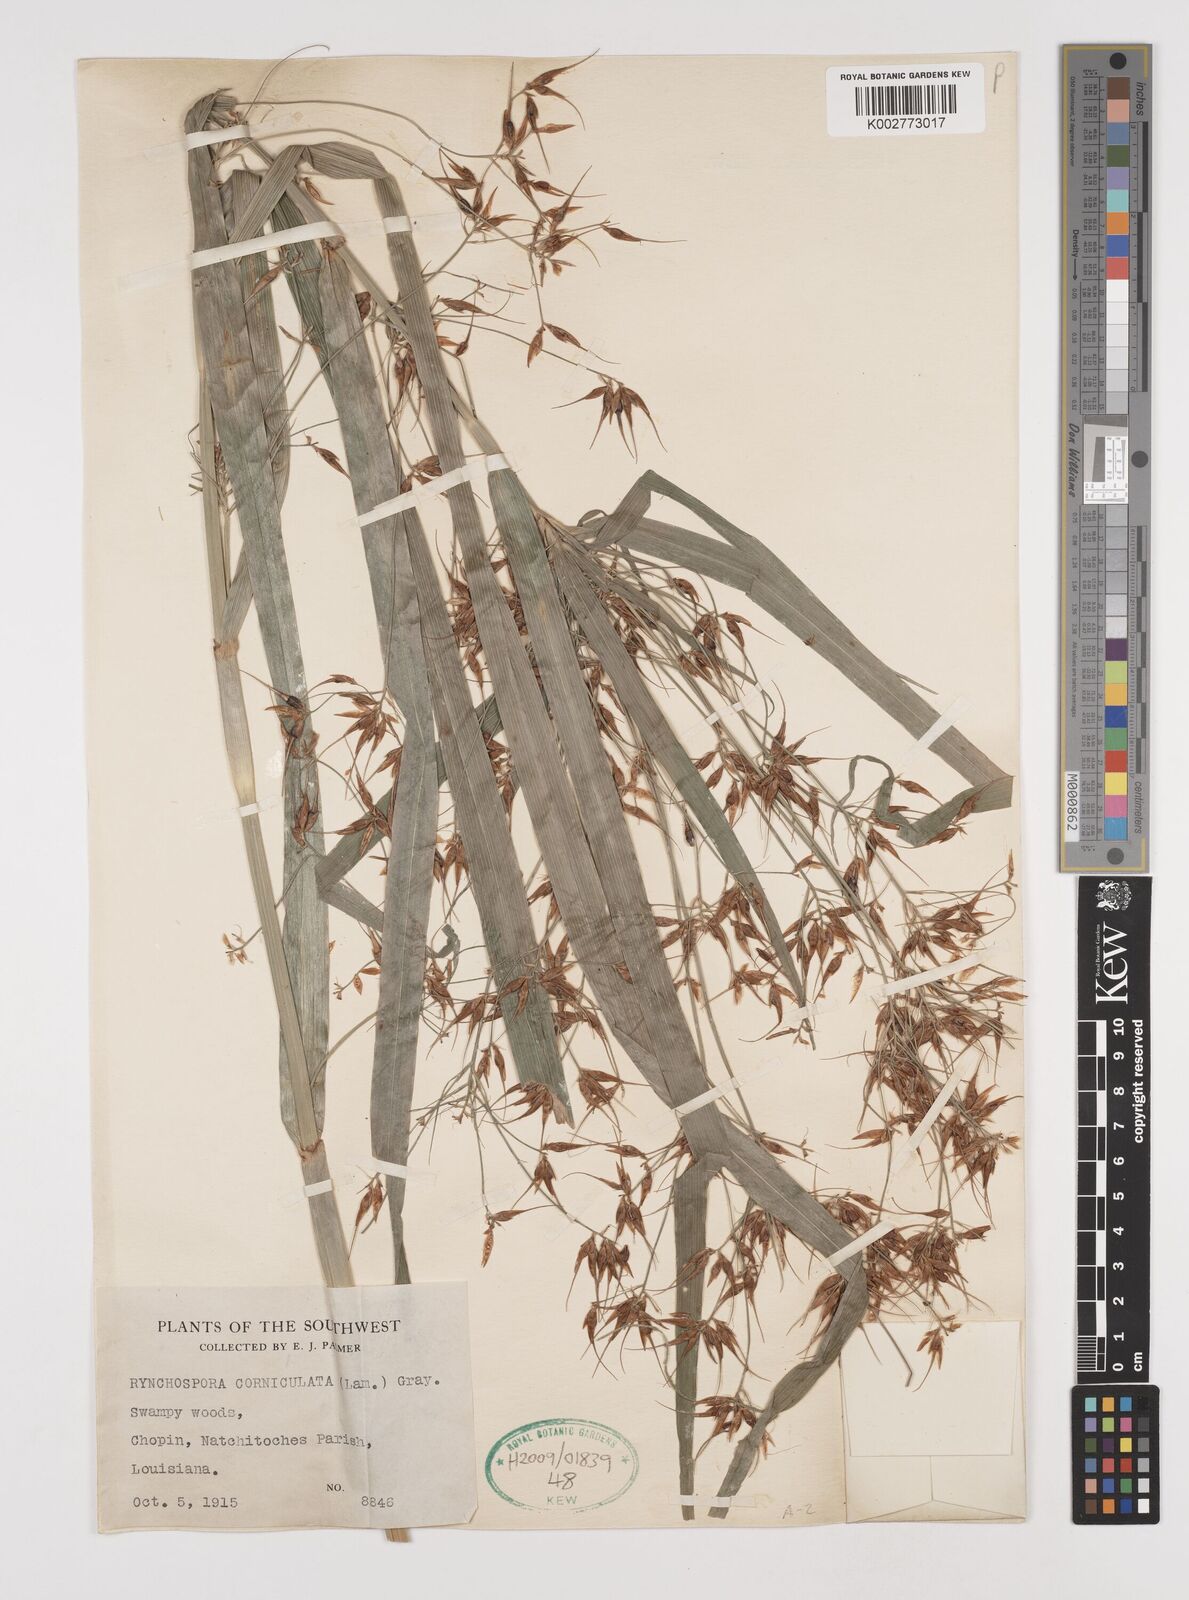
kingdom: Plantae
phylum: Tracheophyta
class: Liliopsida
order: Poales
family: Cyperaceae
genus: Rhynchospora
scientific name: Rhynchospora corniculata
